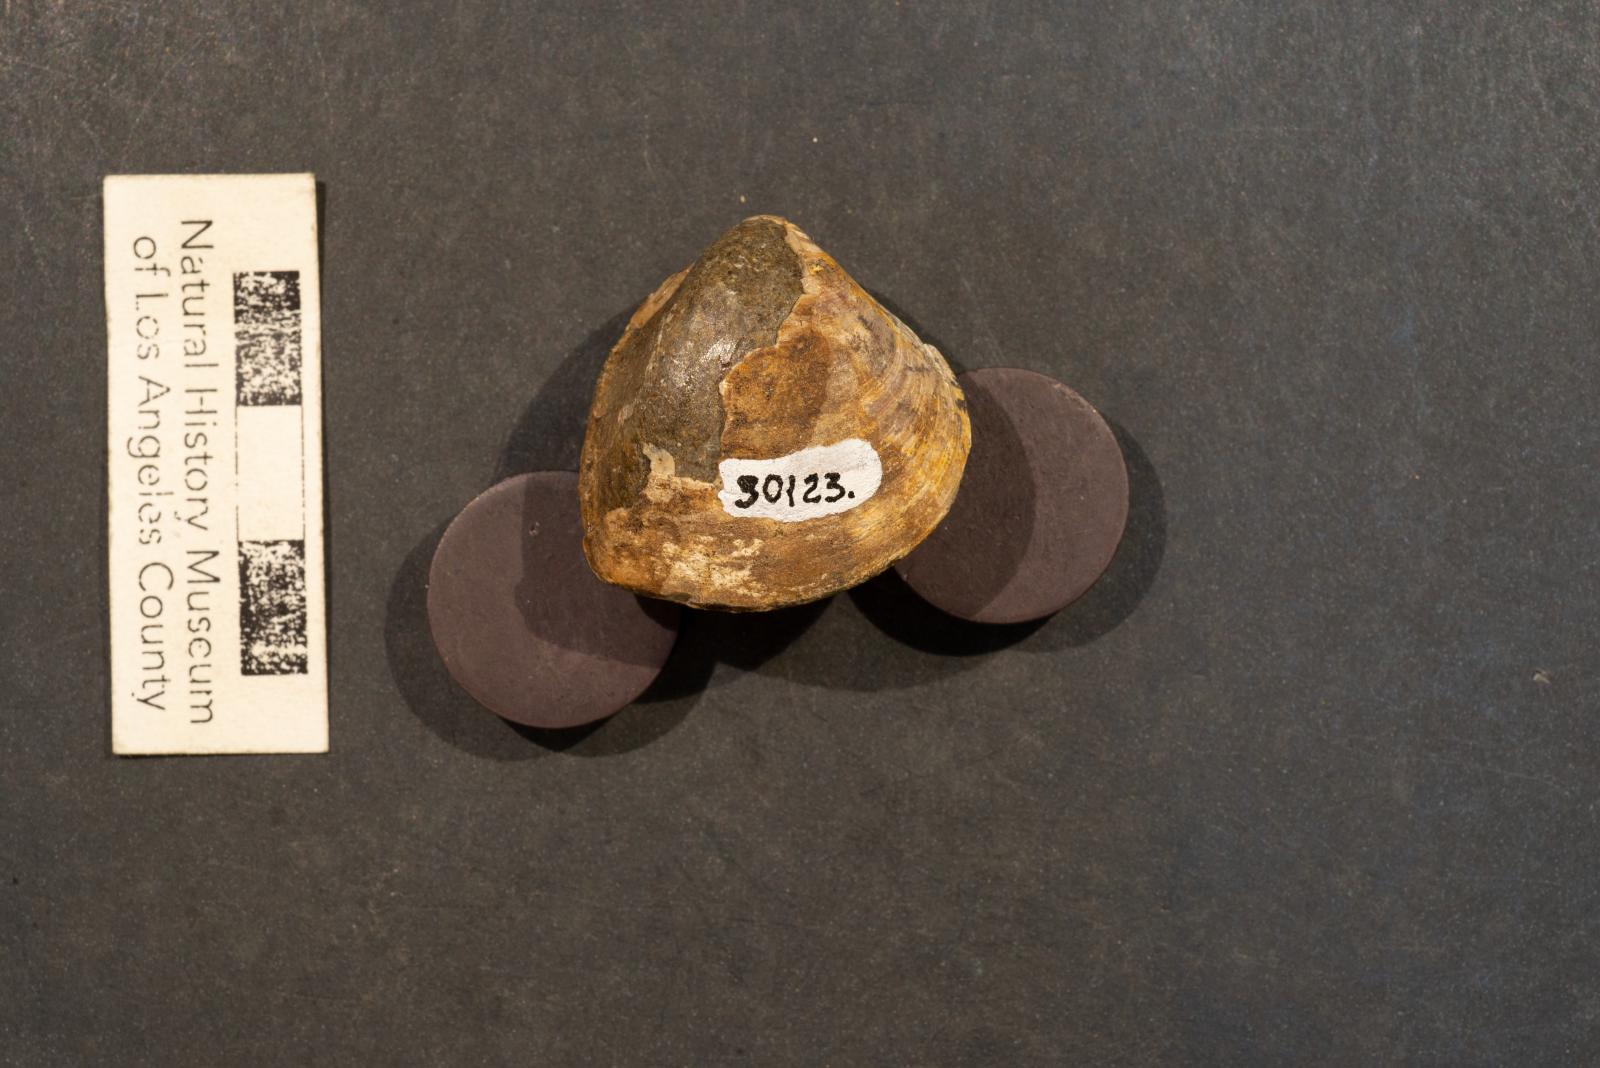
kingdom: Animalia
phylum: Mollusca
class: Bivalvia
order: Cardiida
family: Cardiidae
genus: Pachycardium
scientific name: Pachycardium Cardium coronaensis
